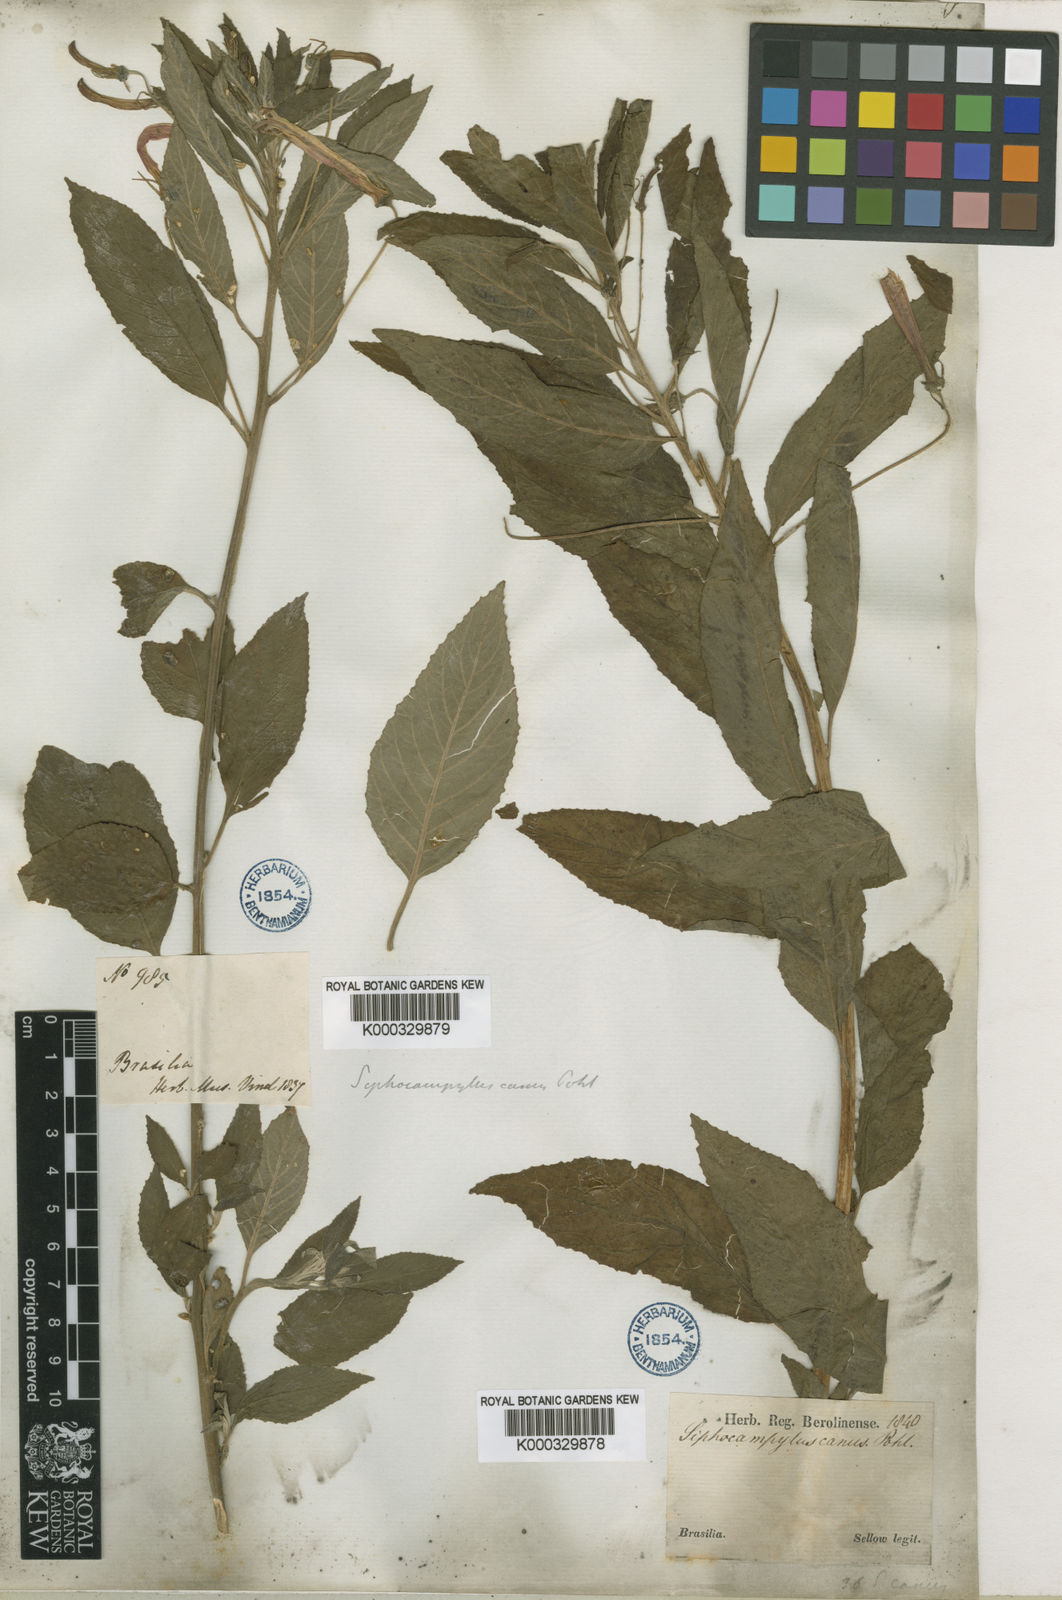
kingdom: Plantae
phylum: Tracheophyta
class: Magnoliopsida
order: Asterales
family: Campanulaceae
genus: Siphocampylus
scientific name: Siphocampylus macropodus
